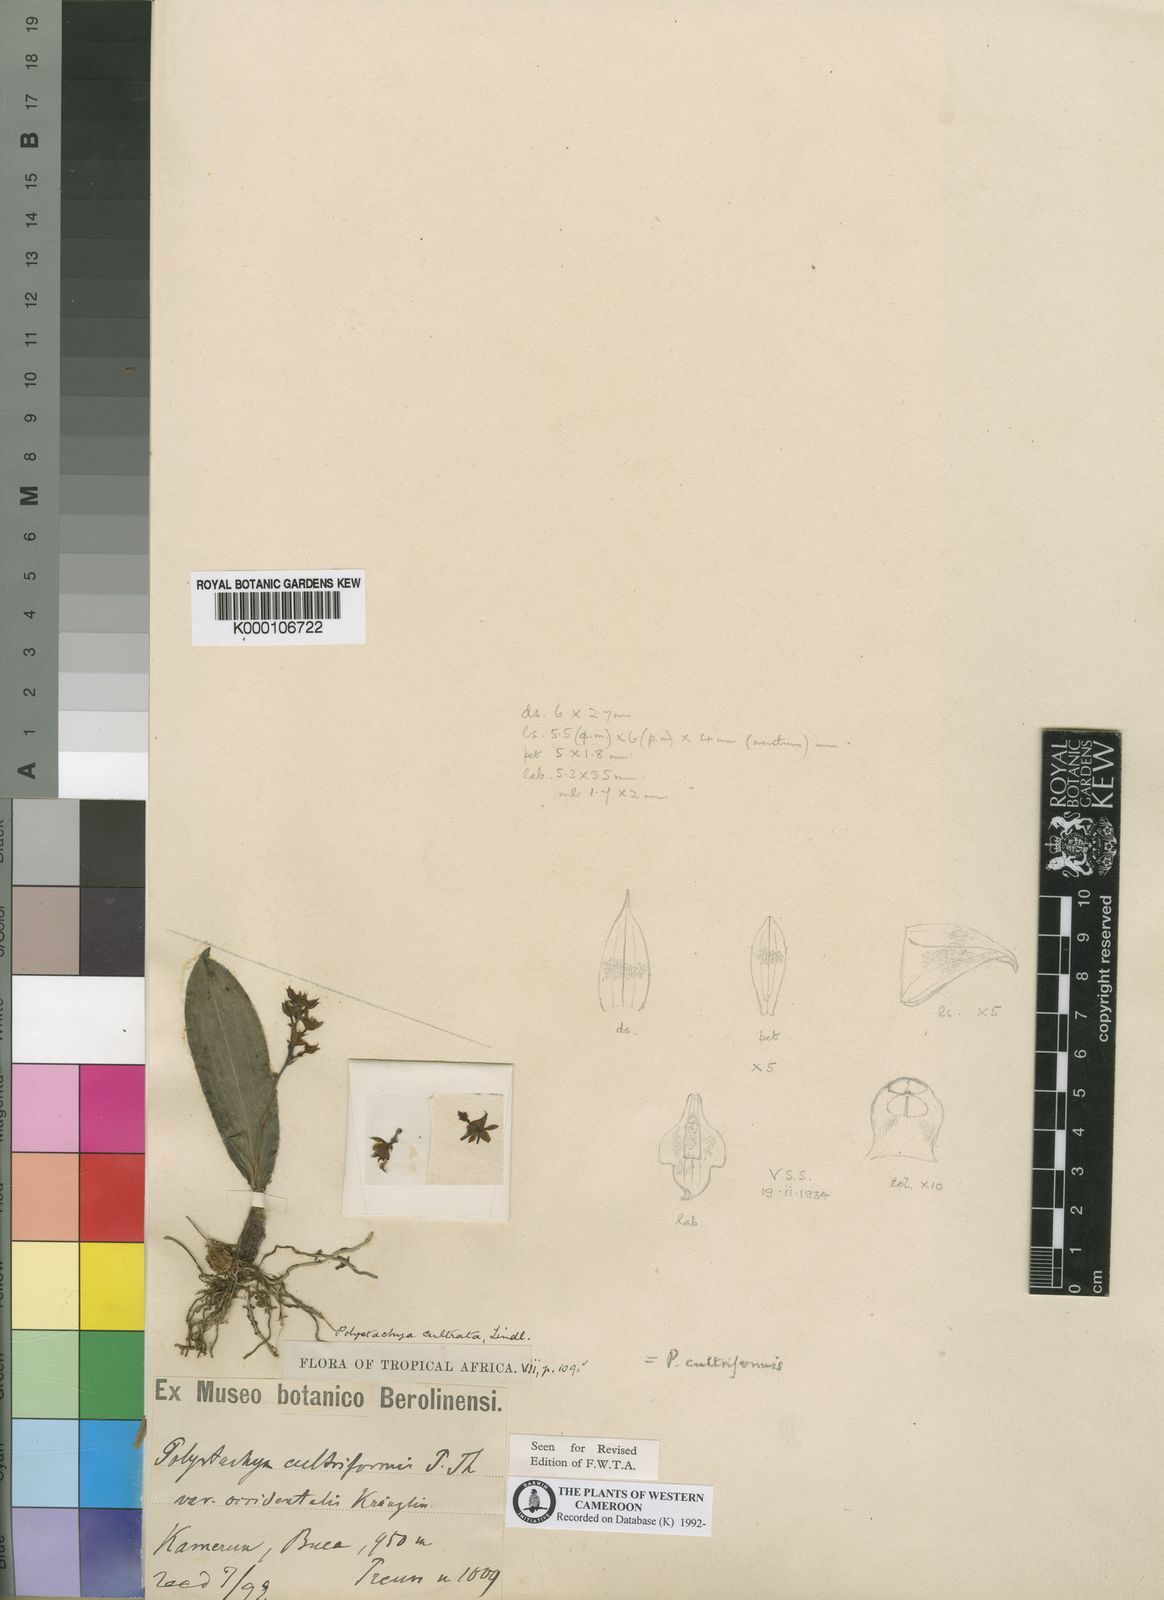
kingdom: Plantae
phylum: Tracheophyta
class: Liliopsida
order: Asparagales
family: Orchidaceae
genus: Polystachya
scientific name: Polystachya cultriformis
